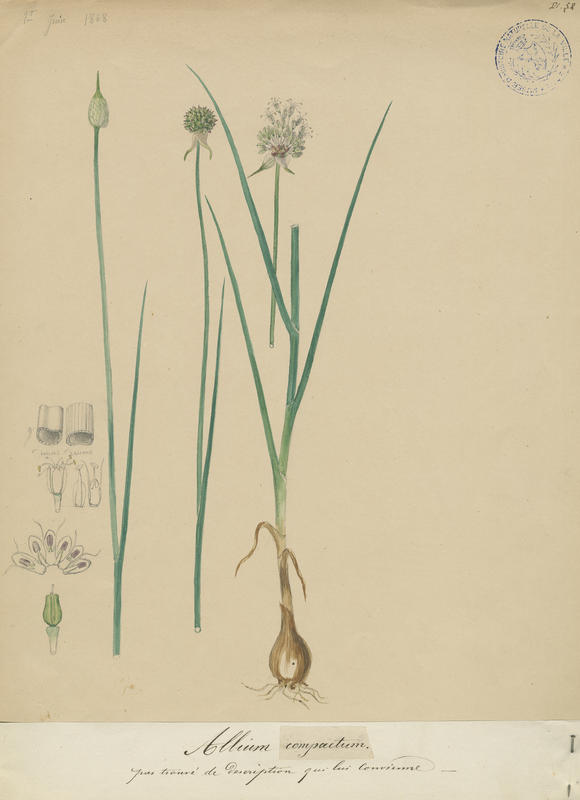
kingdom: Plantae
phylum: Tracheophyta
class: Liliopsida
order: Asparagales
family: Amaryllidaceae
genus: Allium
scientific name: Allium vineale
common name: Crow garlic
